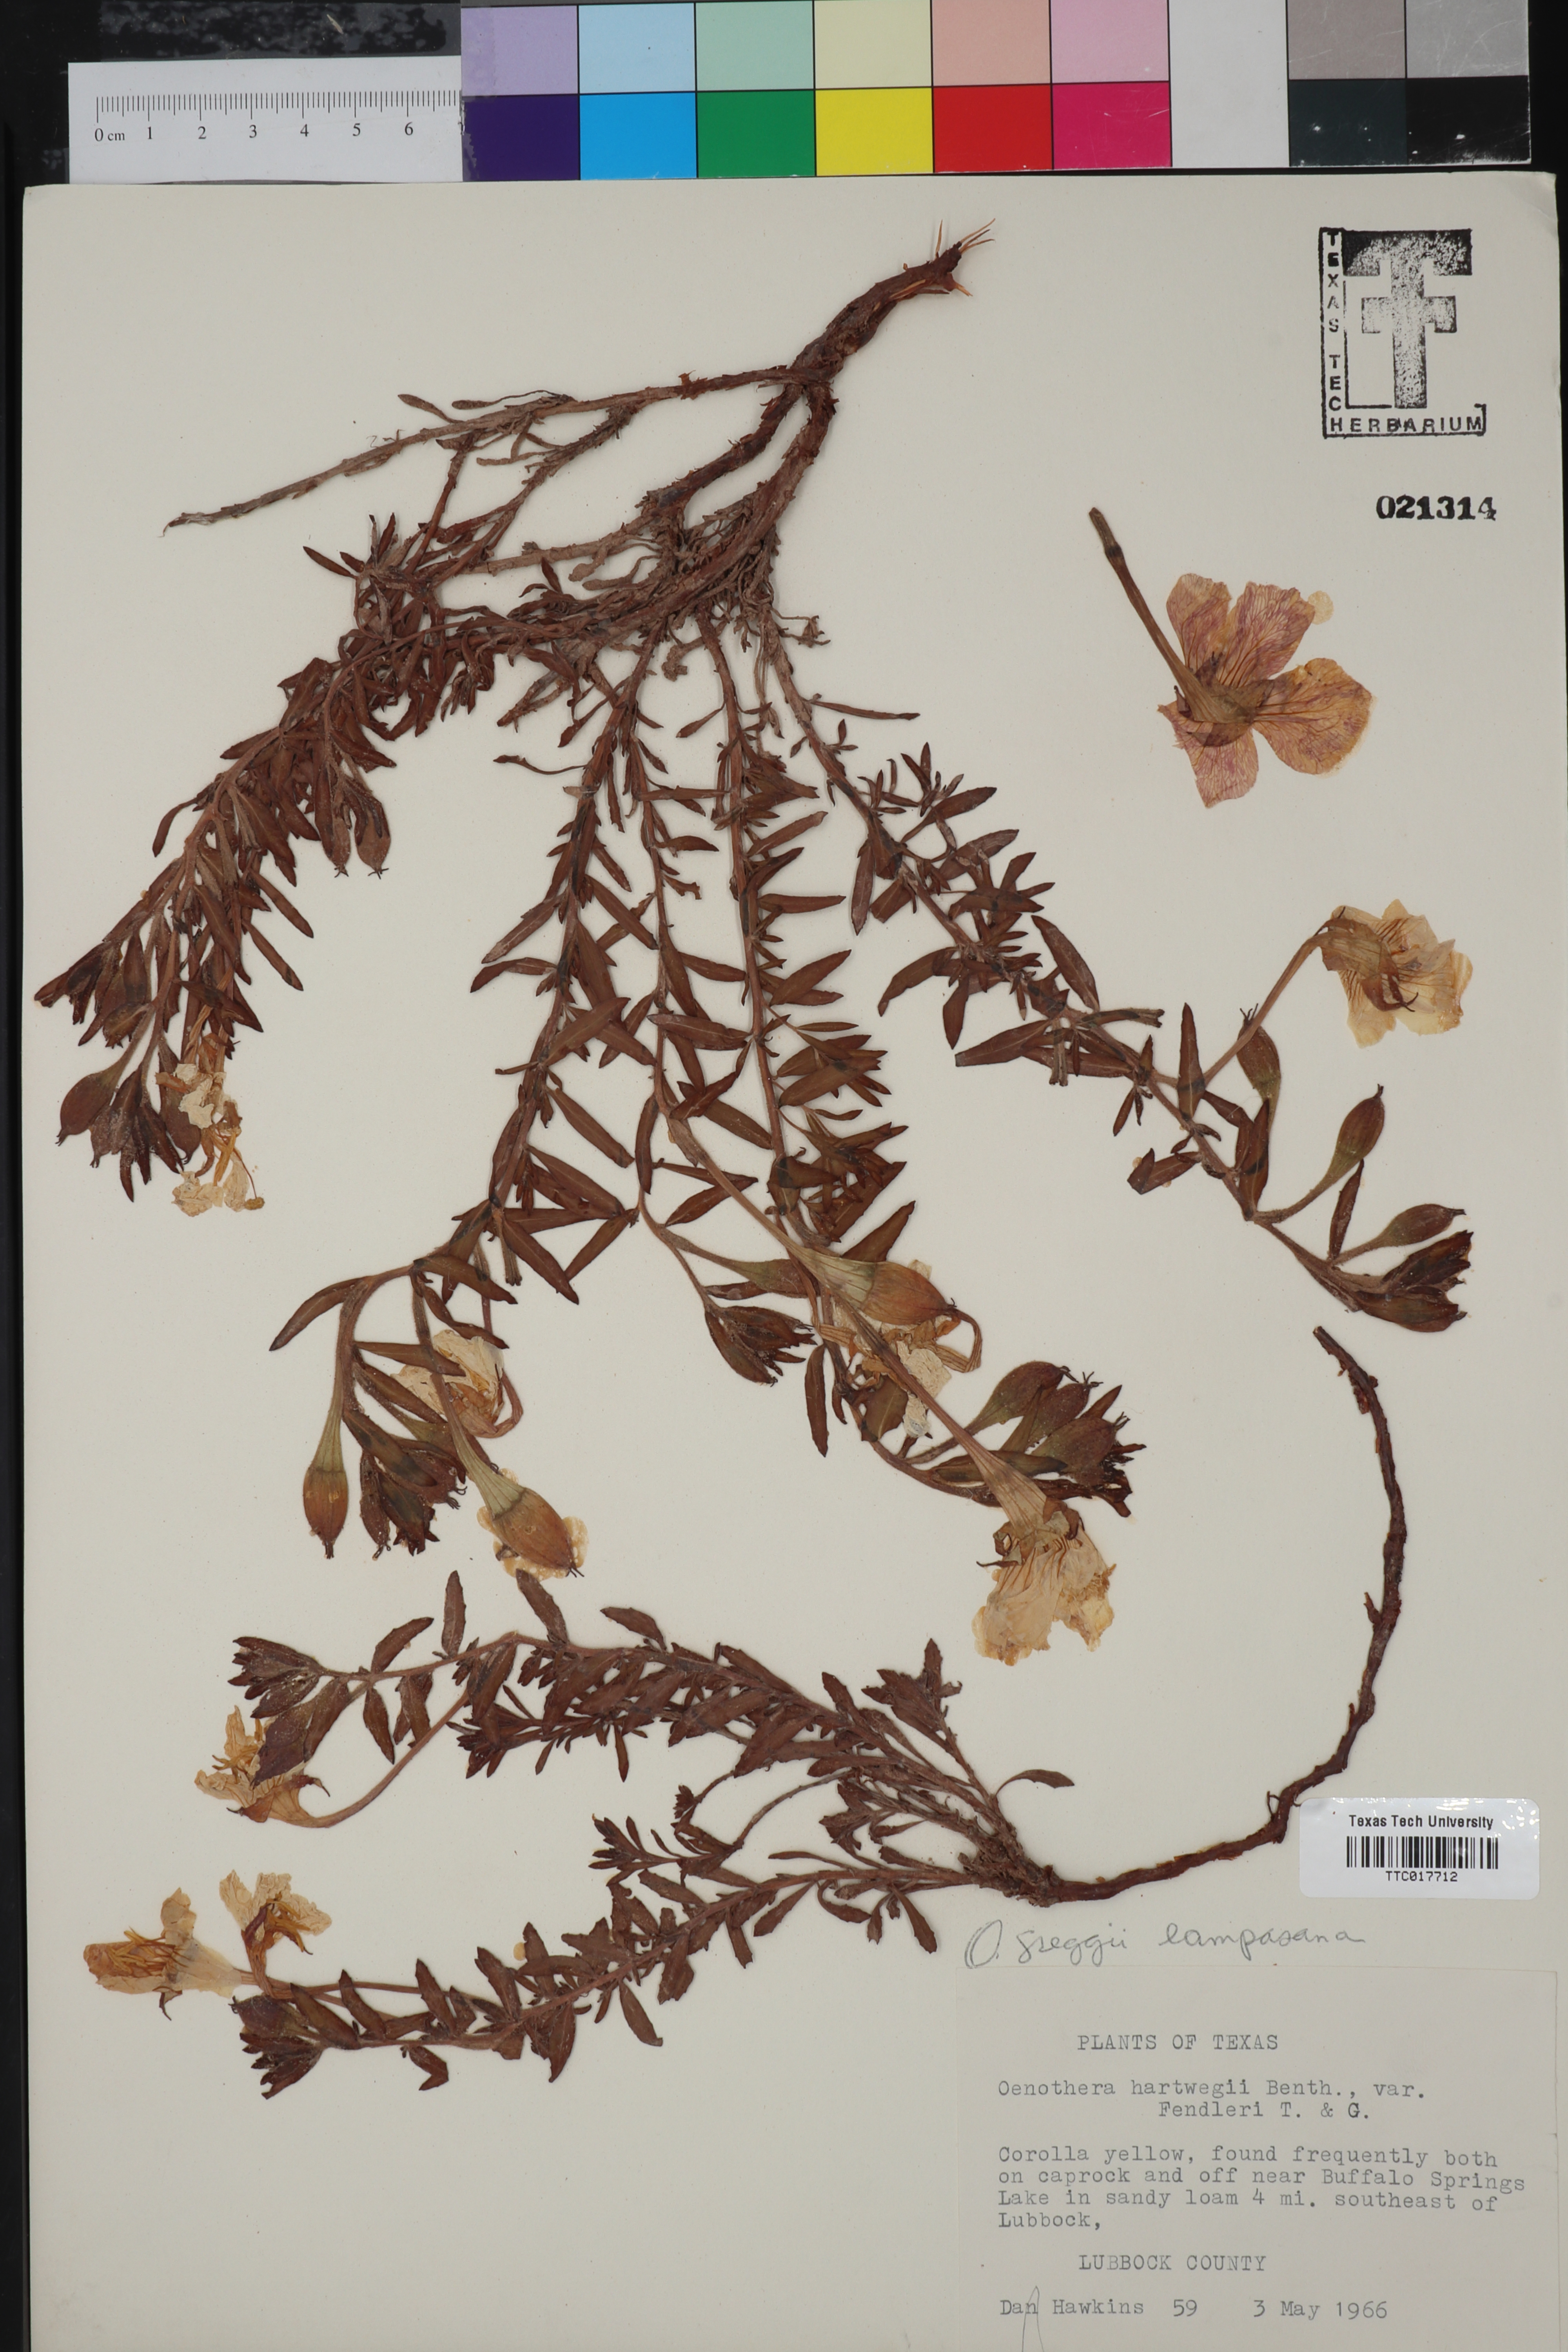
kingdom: Plantae
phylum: Tracheophyta
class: Magnoliopsida
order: Myrtales
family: Onagraceae
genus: Oenothera
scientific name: Oenothera hartwegii
